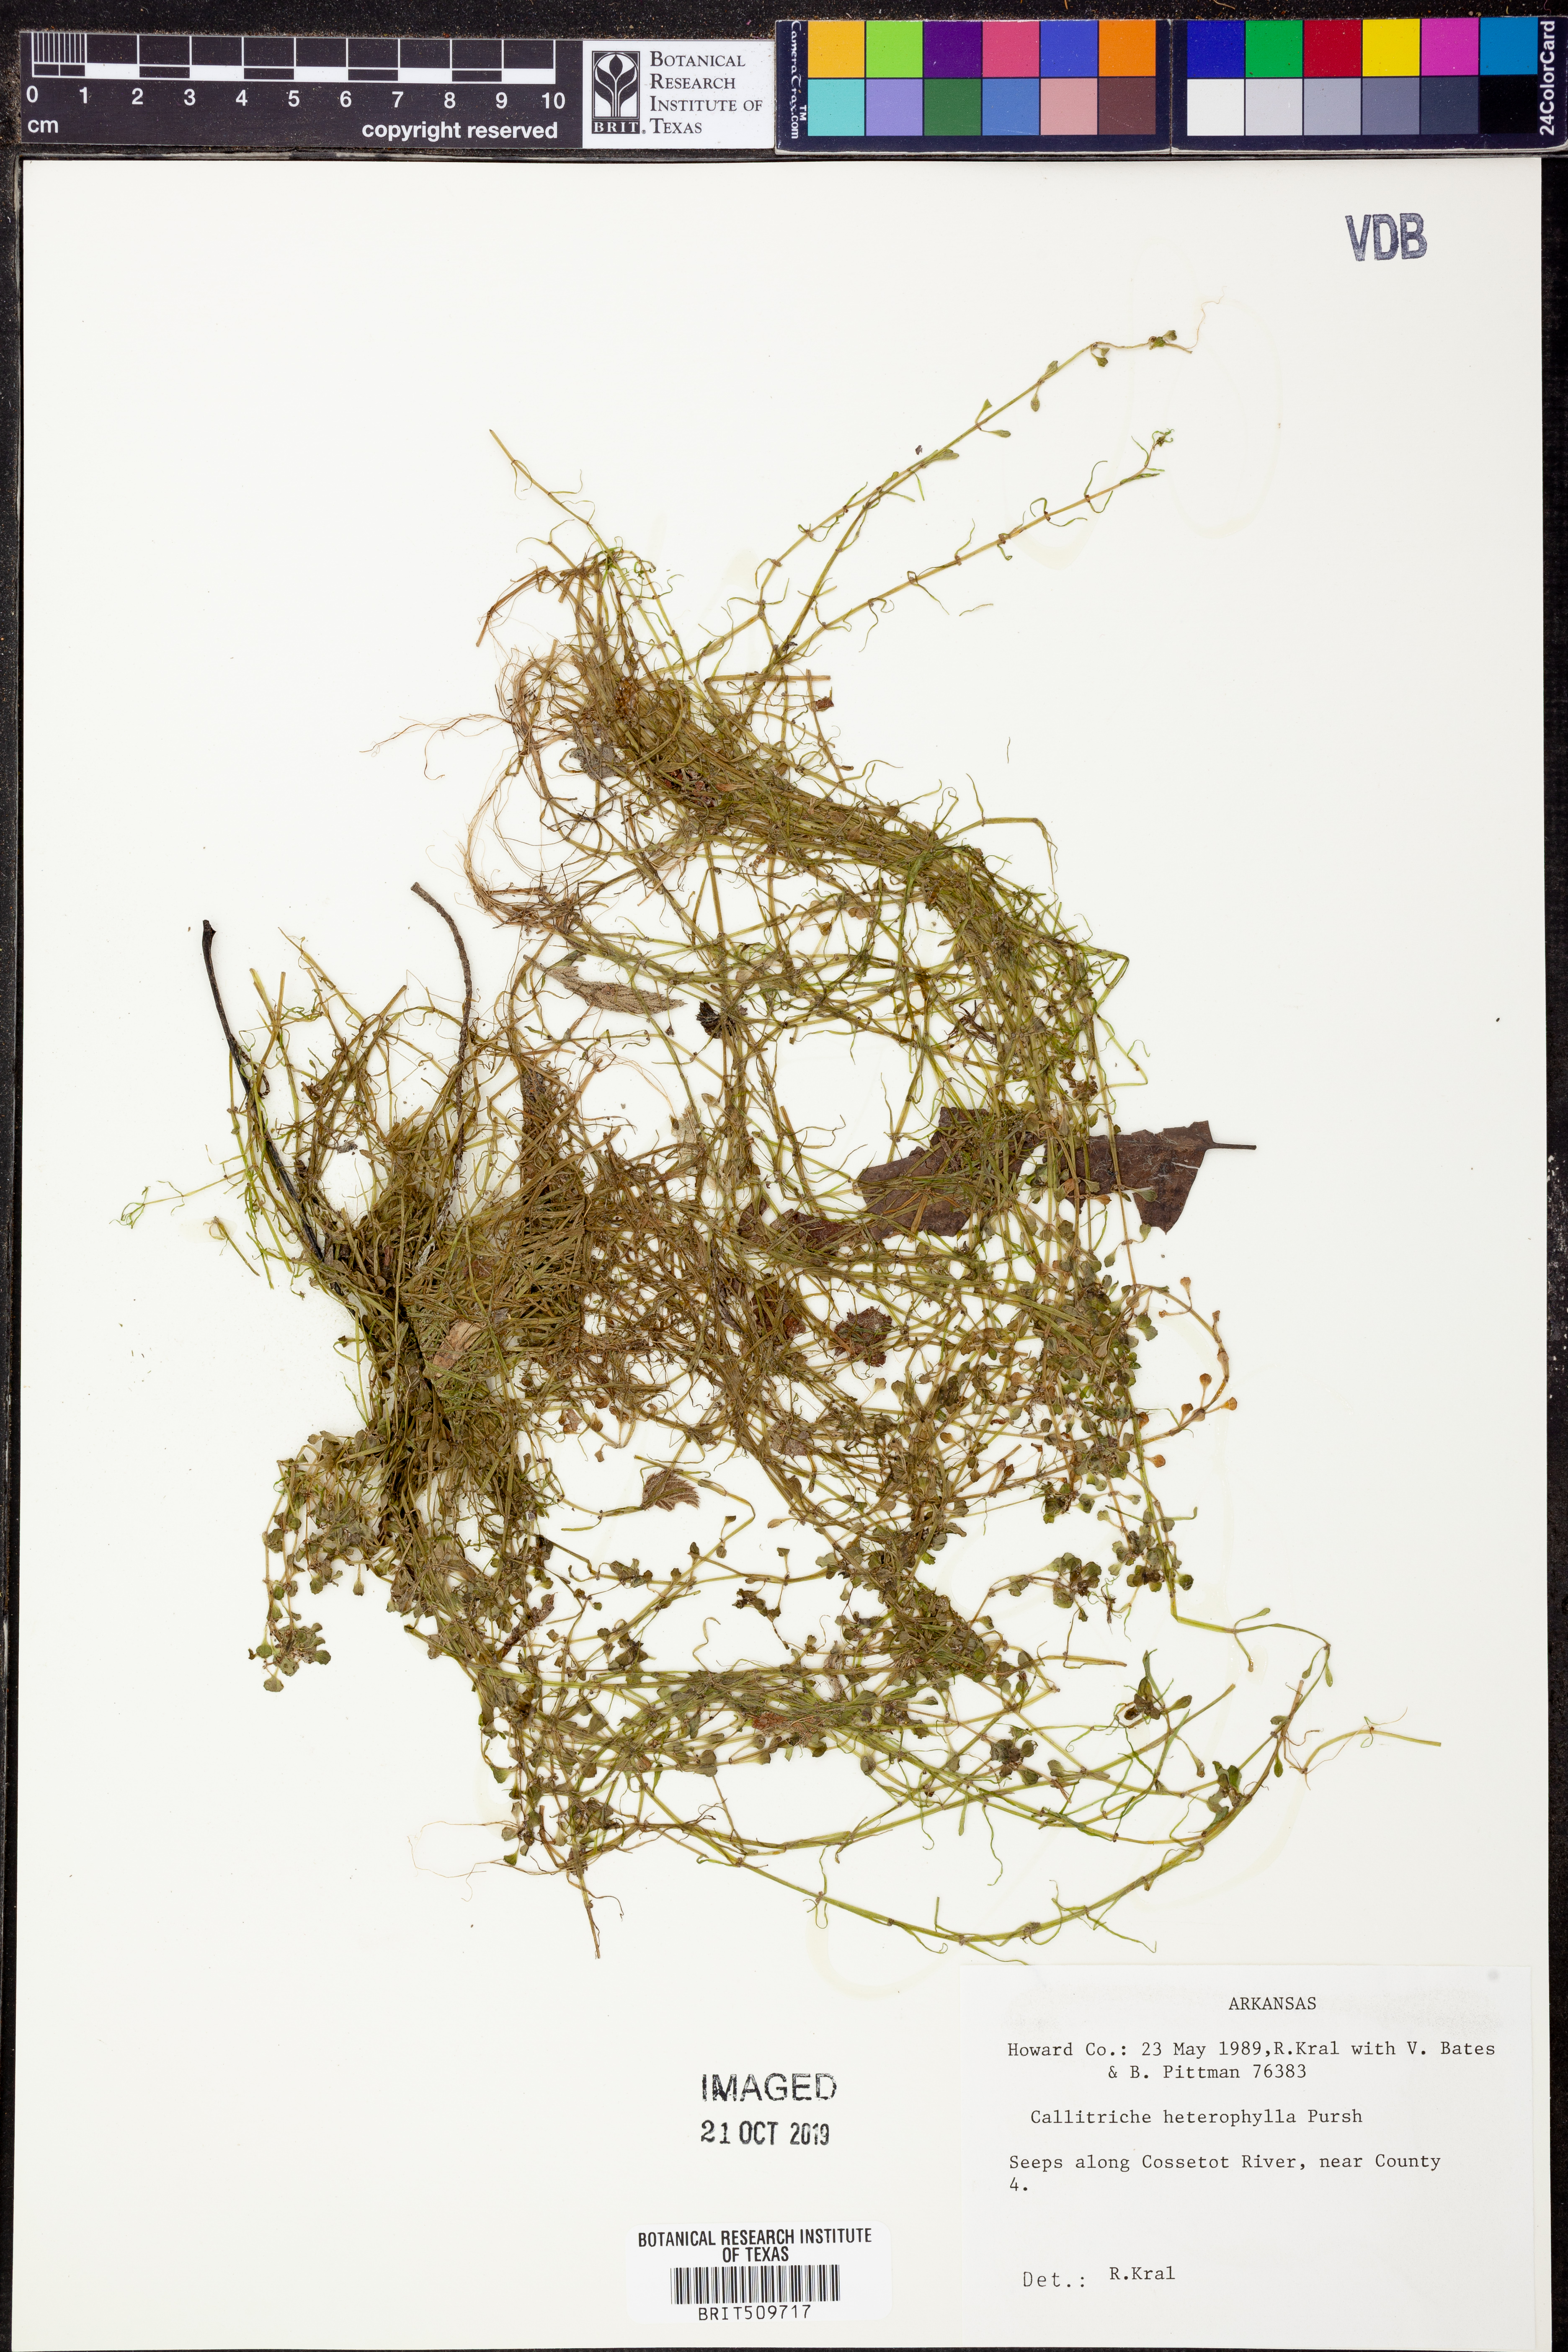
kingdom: Plantae
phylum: Tracheophyta
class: Magnoliopsida
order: Lamiales
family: Plantaginaceae
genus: Callitriche
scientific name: Callitriche heterophylla
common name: Two-headed water-starwort
